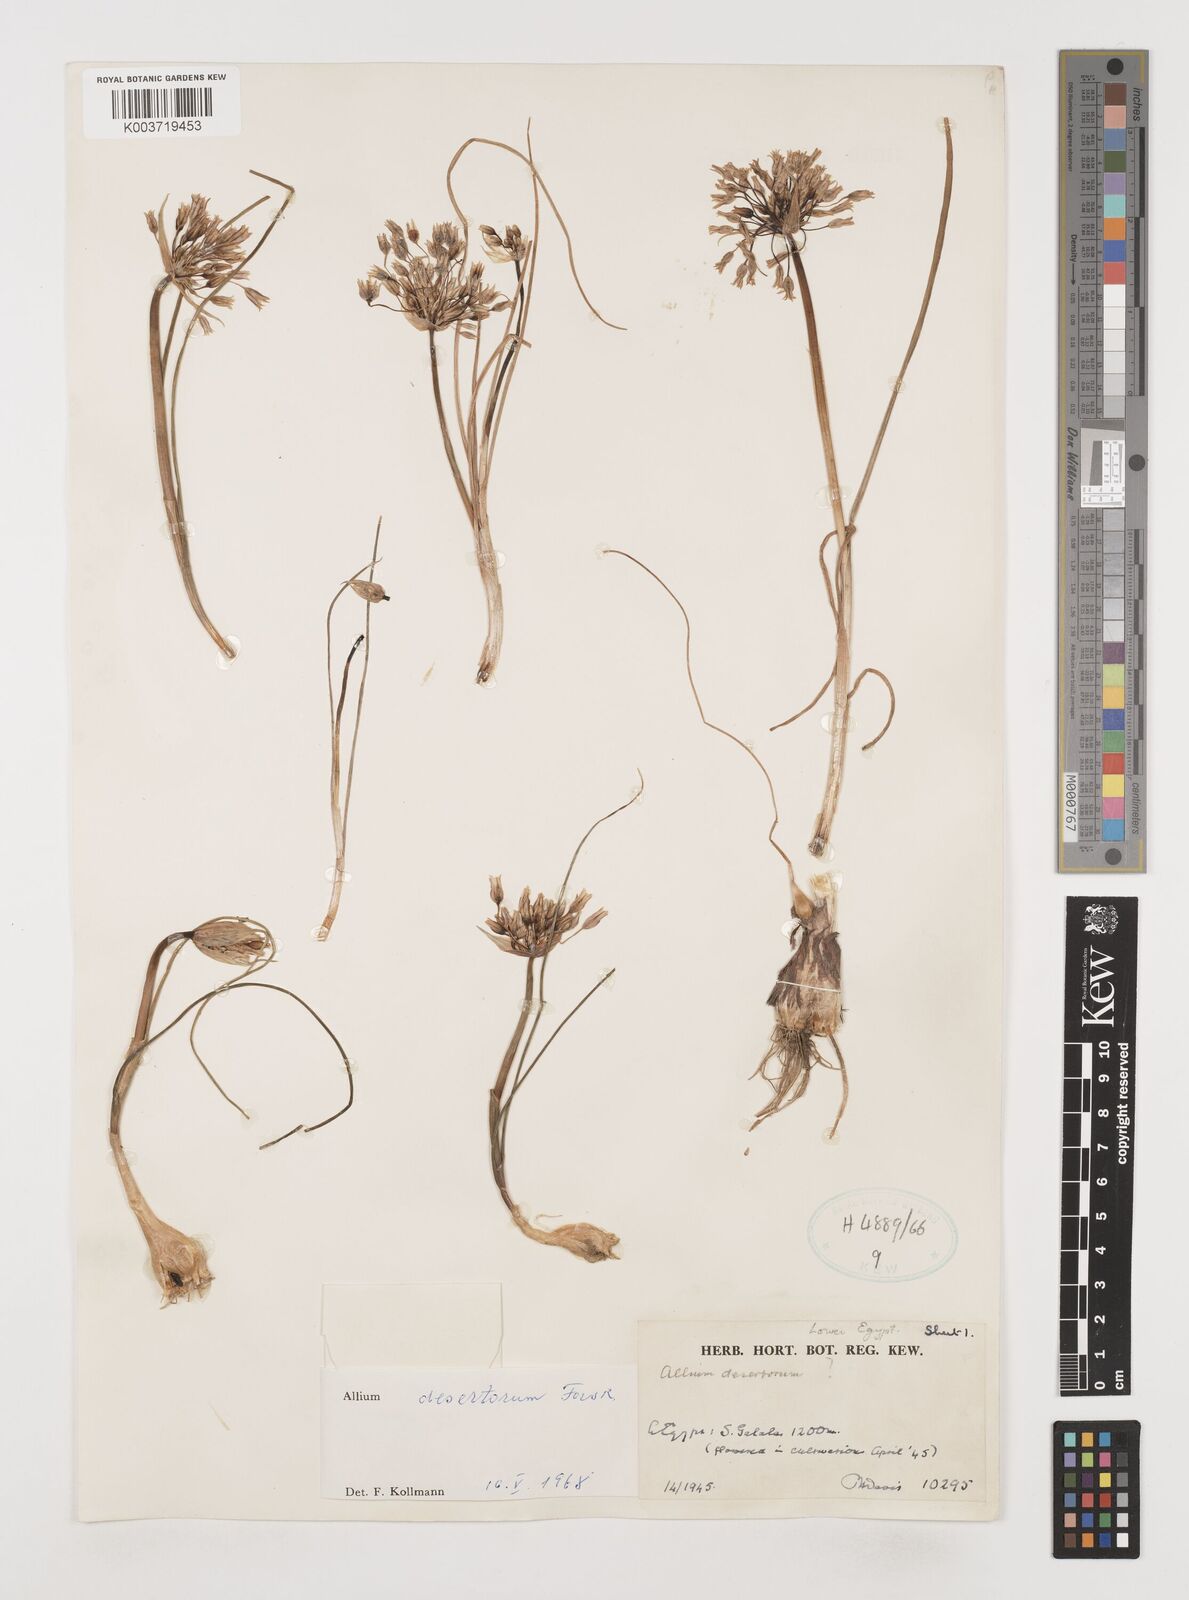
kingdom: Plantae
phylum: Tracheophyta
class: Liliopsida
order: Asparagales
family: Amaryllidaceae
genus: Allium
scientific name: Allium desertorum
